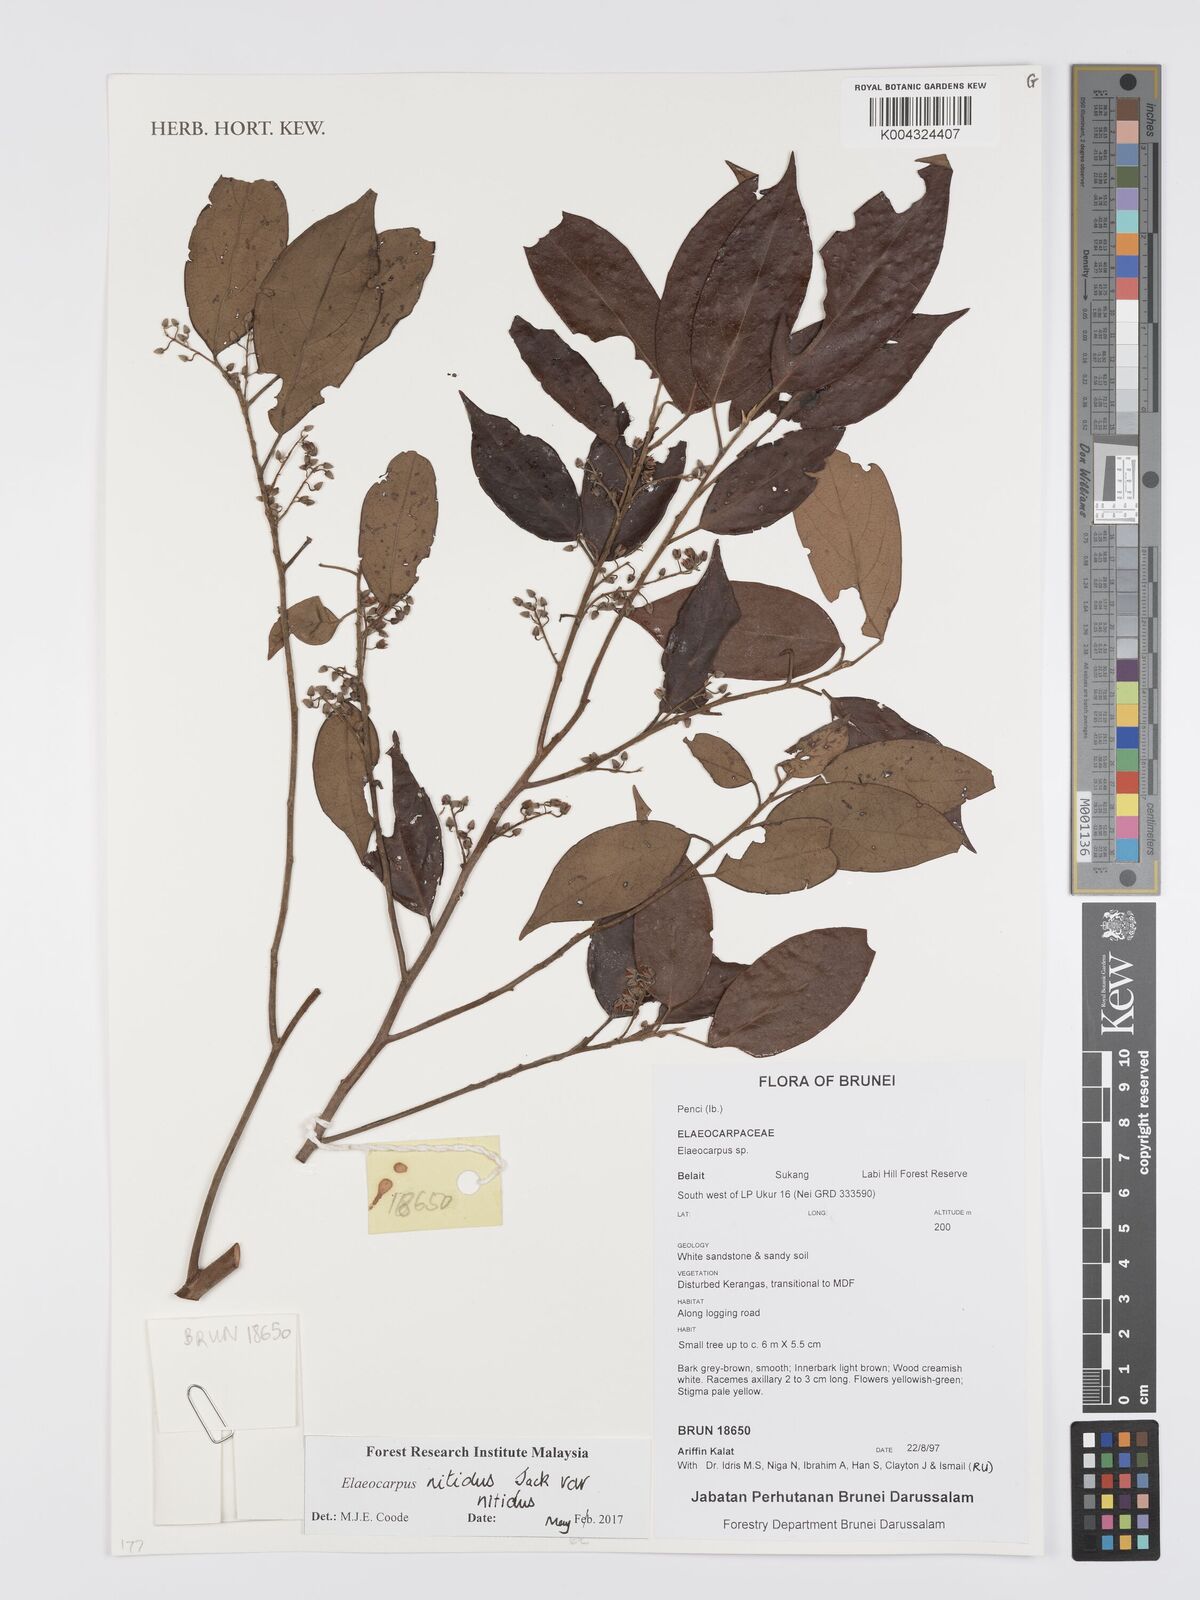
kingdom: Plantae
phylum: Tracheophyta
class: Magnoliopsida
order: Oxalidales
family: Elaeocarpaceae
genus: Elaeocarpus
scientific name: Elaeocarpus nitidus
